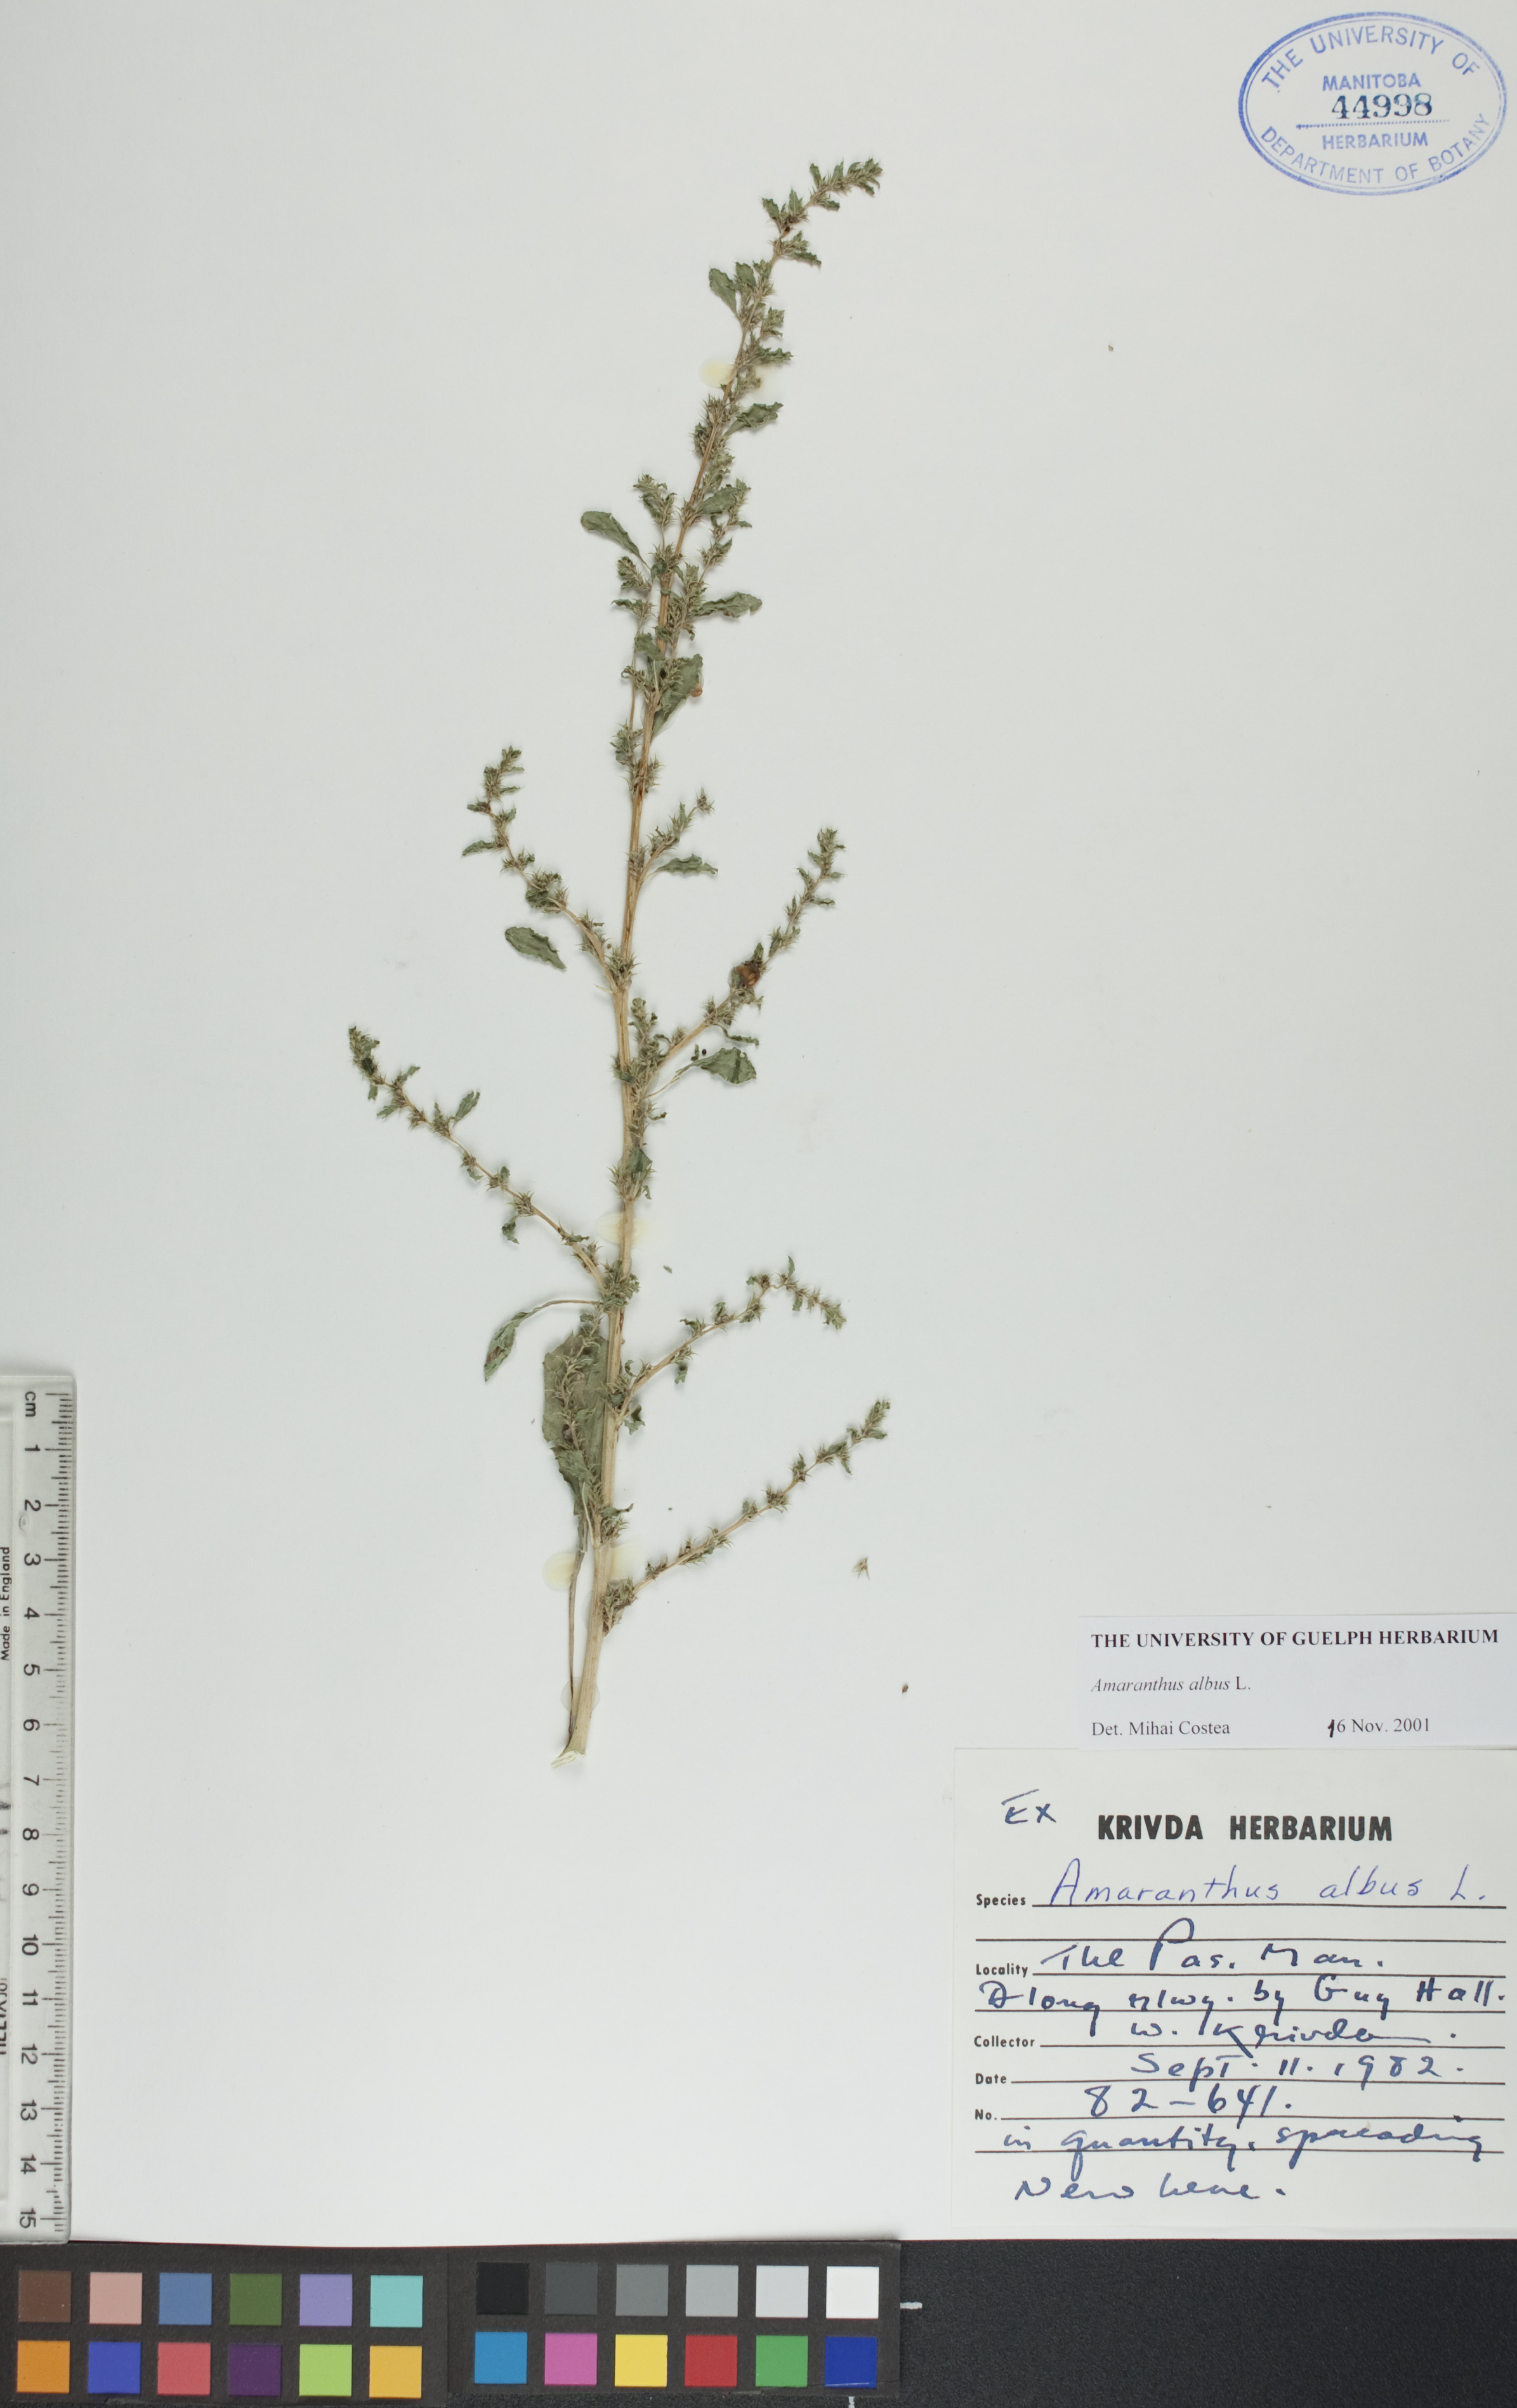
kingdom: Plantae
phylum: Tracheophyta
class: Magnoliopsida
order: Caryophyllales
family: Amaranthaceae
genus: Amaranthus
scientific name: Amaranthus albus
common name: White pigweed
